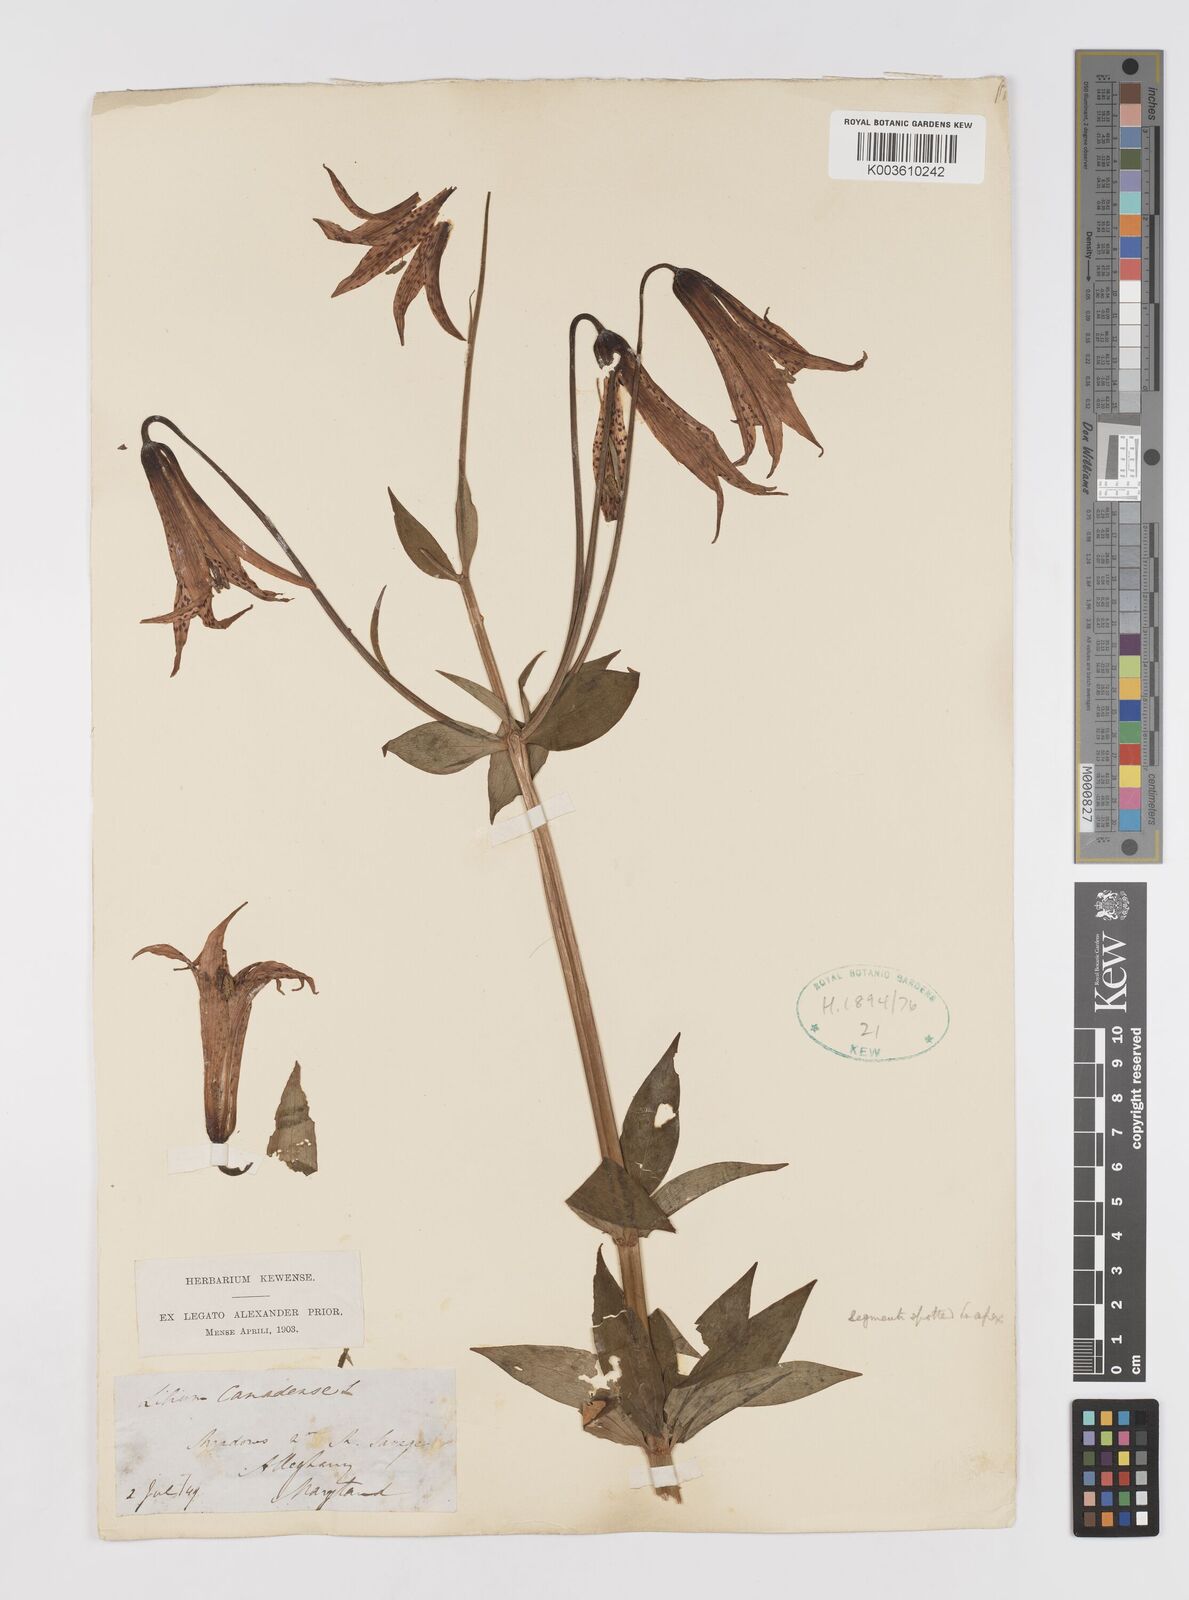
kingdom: Plantae
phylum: Tracheophyta
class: Liliopsida
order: Liliales
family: Liliaceae
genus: Lilium
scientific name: Lilium canadense
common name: Canada lily
